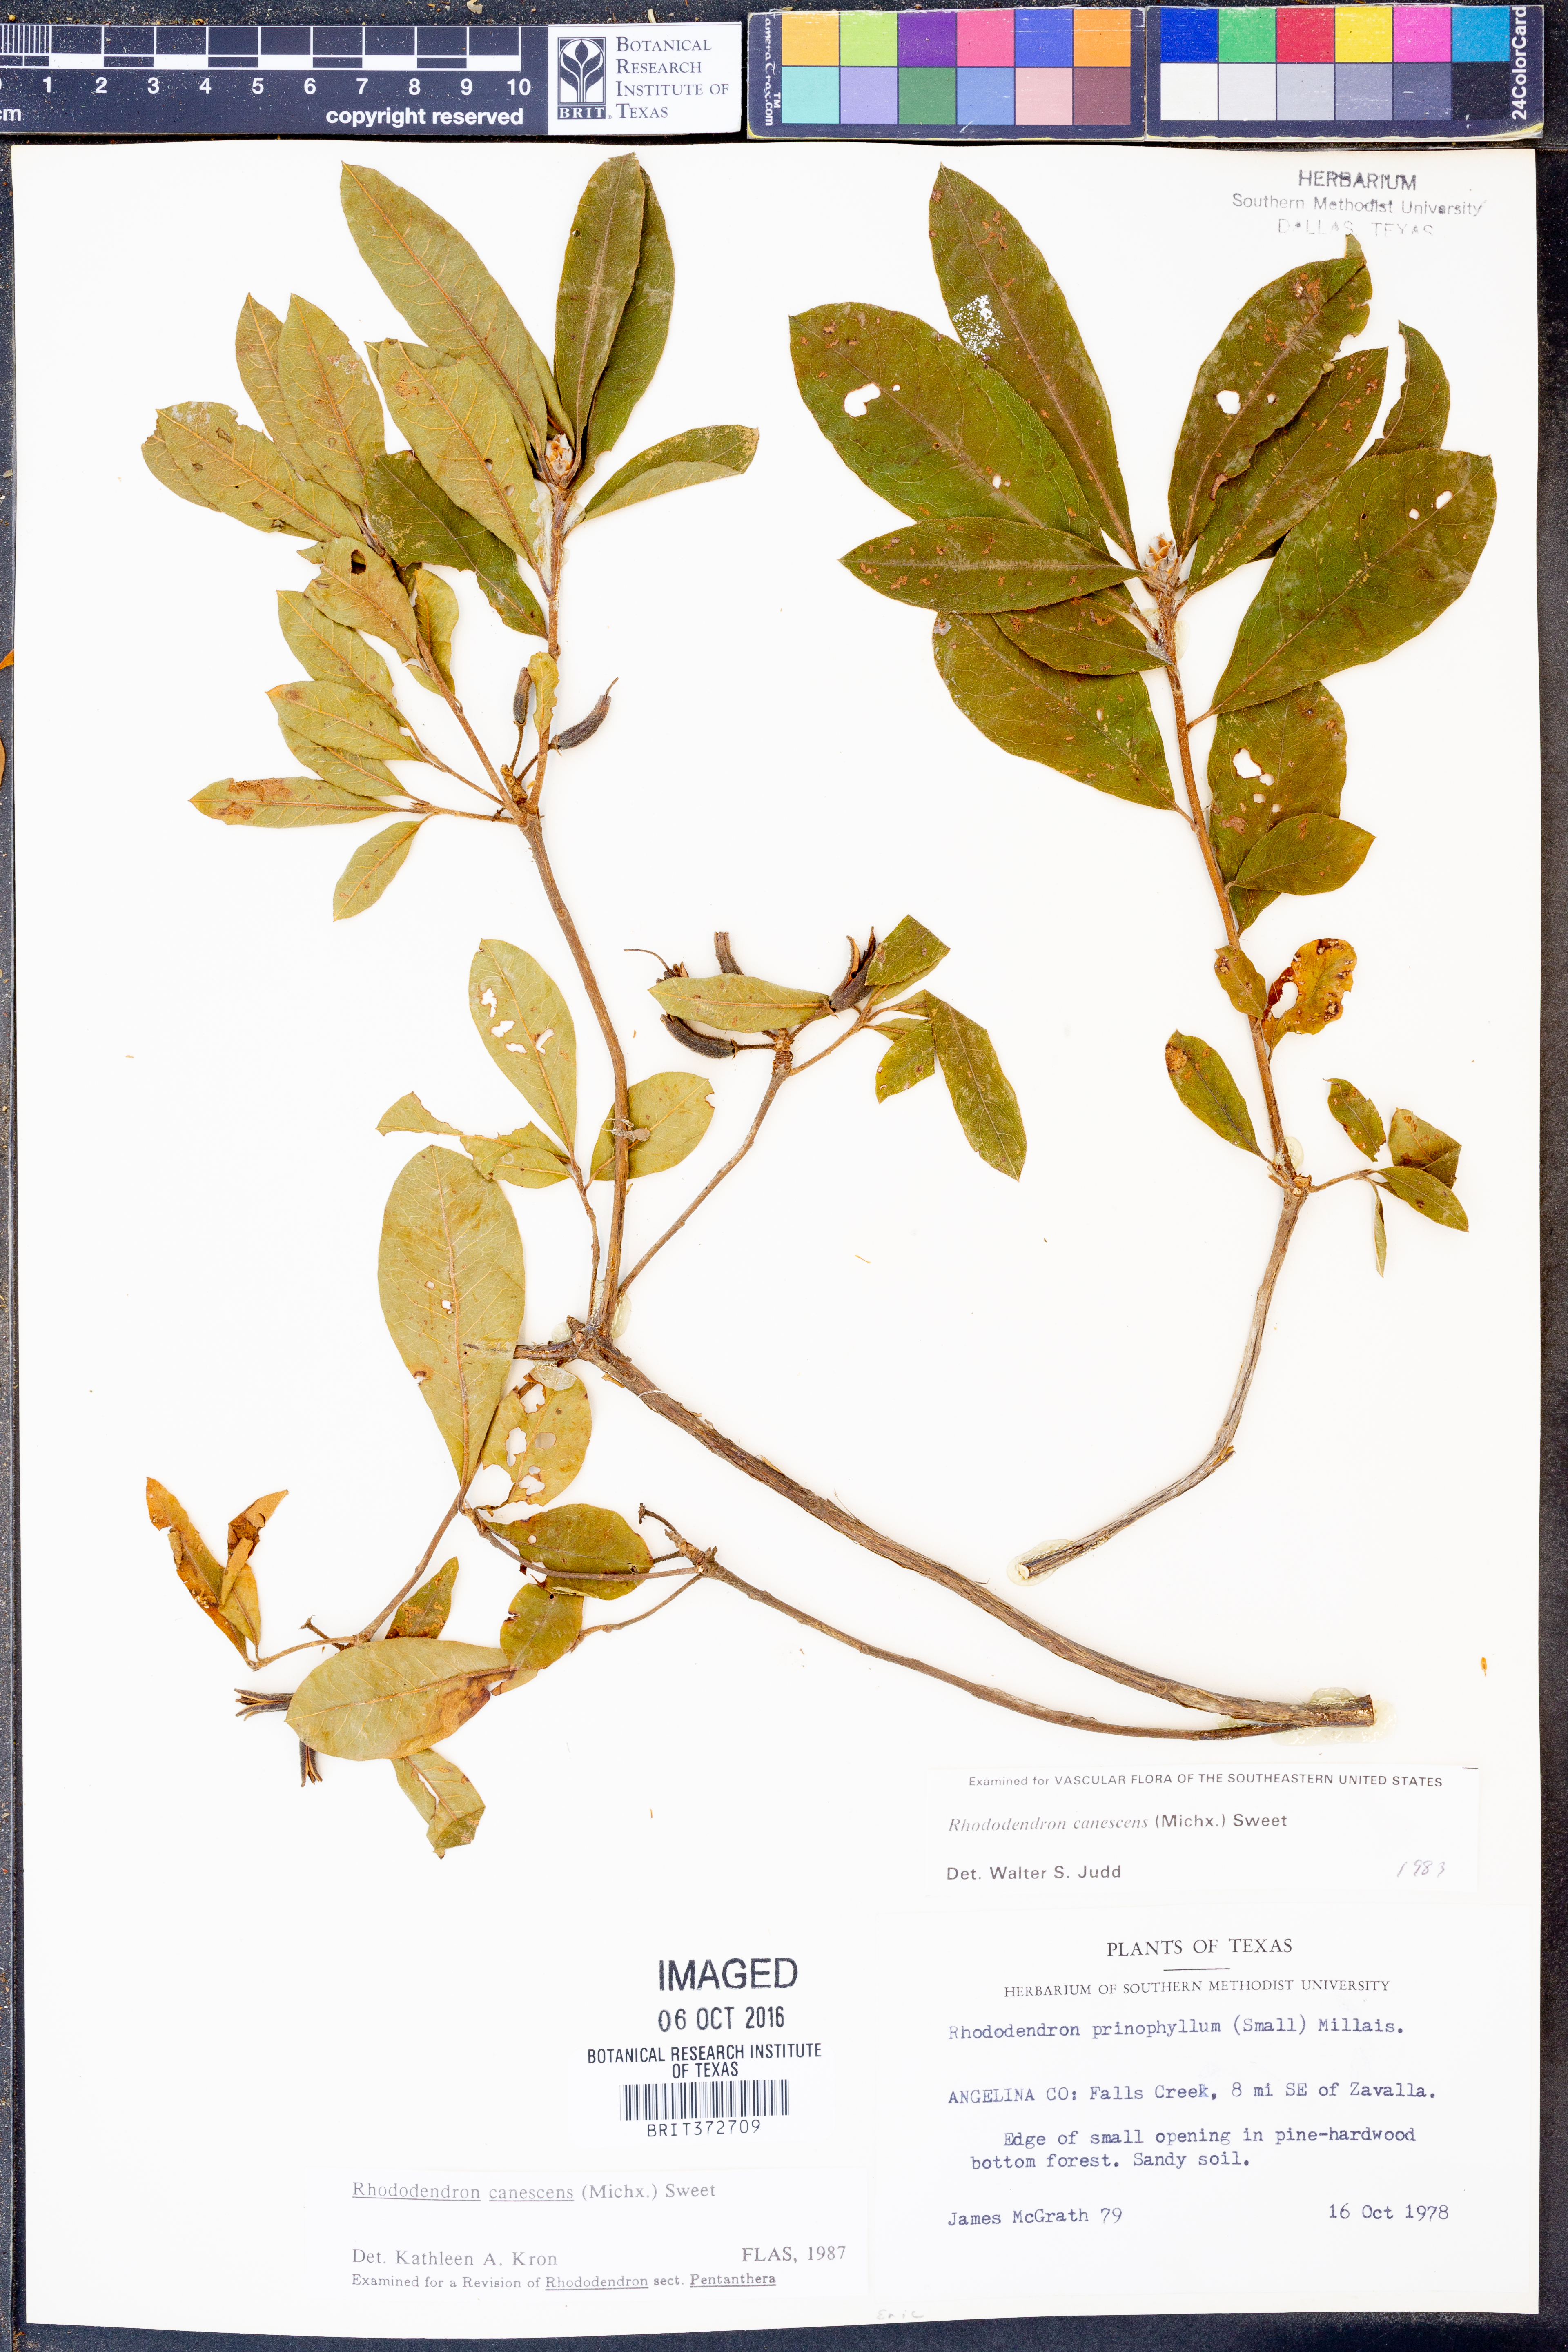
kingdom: Plantae
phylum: Tracheophyta
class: Magnoliopsida
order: Ericales
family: Ericaceae
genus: Rhododendron
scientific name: Rhododendron canescens
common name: Mountain azalea
